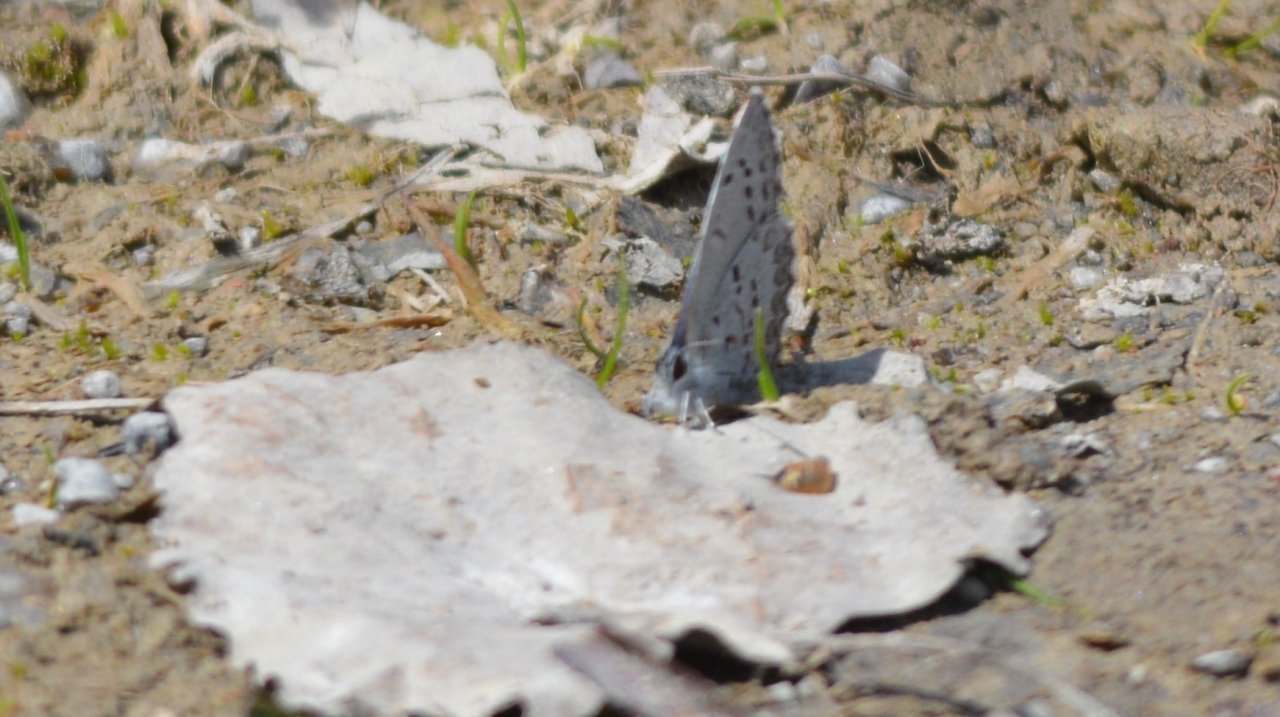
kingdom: Animalia
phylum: Arthropoda
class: Insecta
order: Lepidoptera
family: Lycaenidae
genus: Celastrina
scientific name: Celastrina
